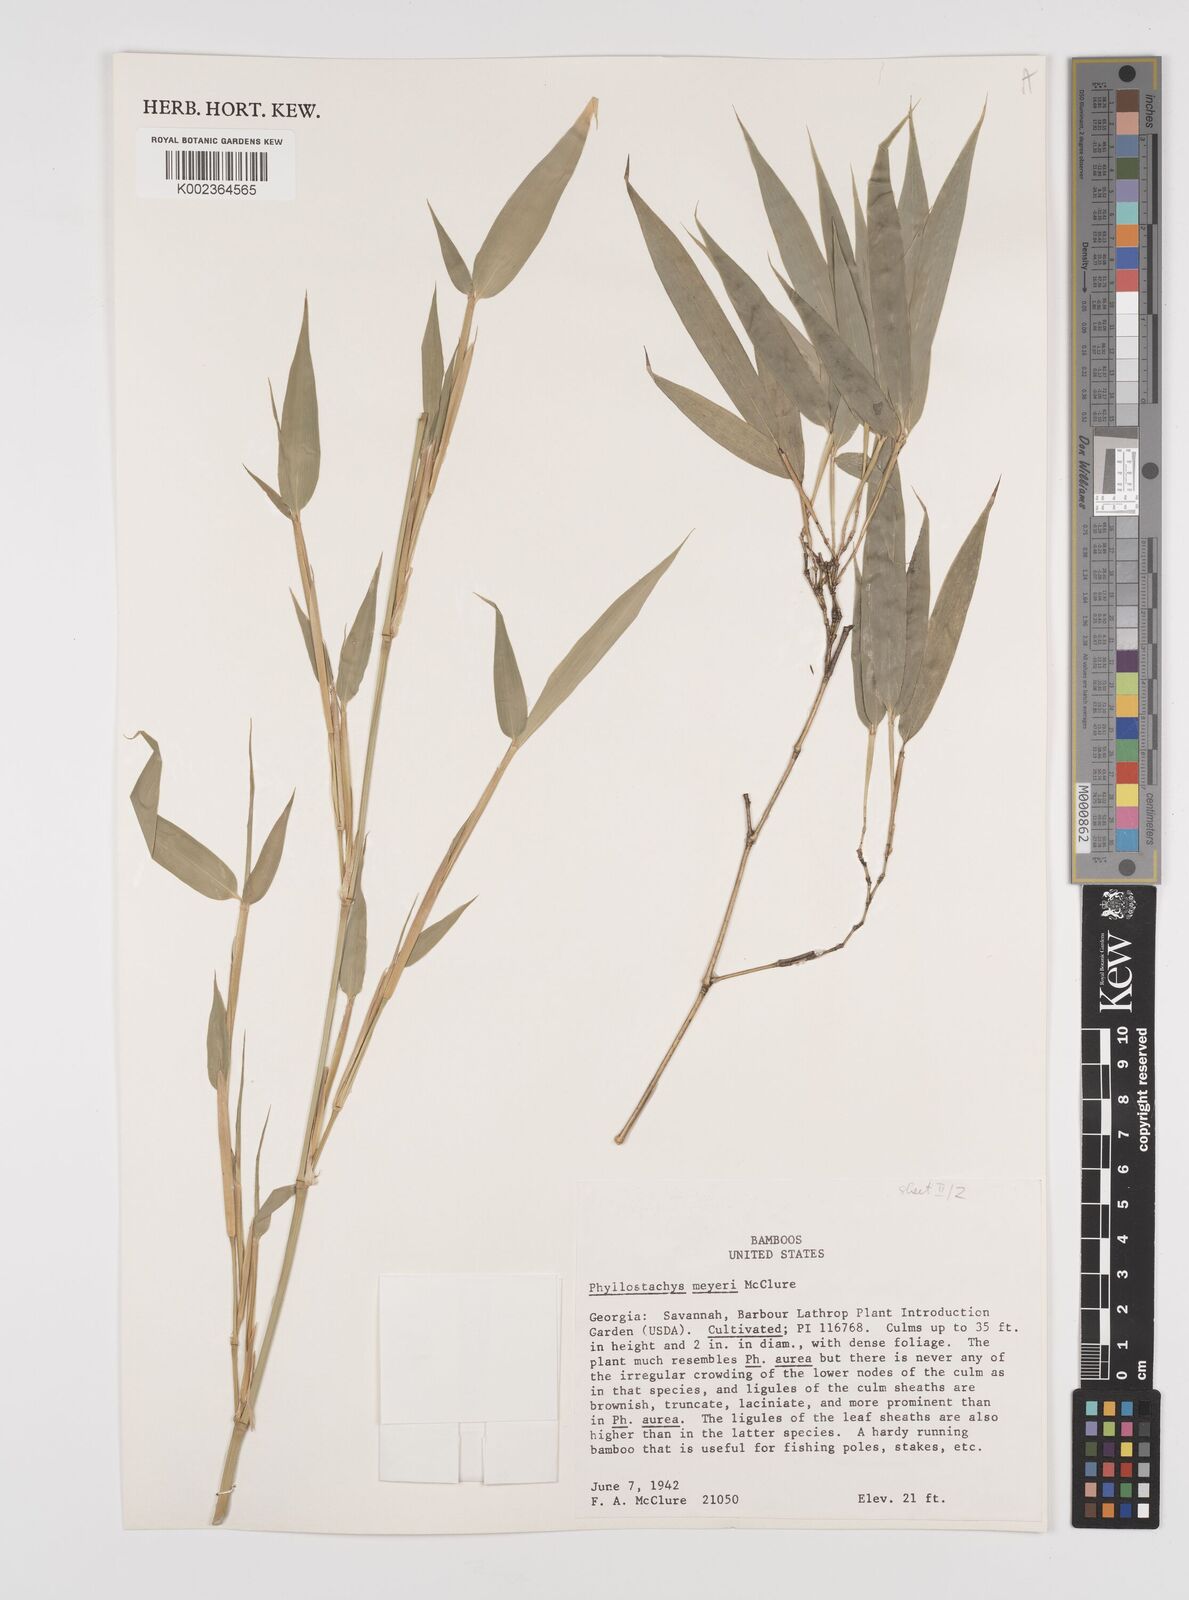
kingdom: Plantae
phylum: Tracheophyta
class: Liliopsida
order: Poales
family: Poaceae
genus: Phyllostachys
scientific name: Phyllostachys meyeri
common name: Meyer's bamboo
